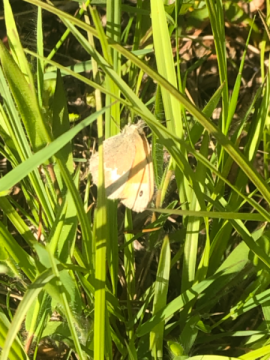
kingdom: Animalia
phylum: Arthropoda
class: Insecta
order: Lepidoptera
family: Nymphalidae
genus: Coenonympha
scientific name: Coenonympha tullia
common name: Large Heath
